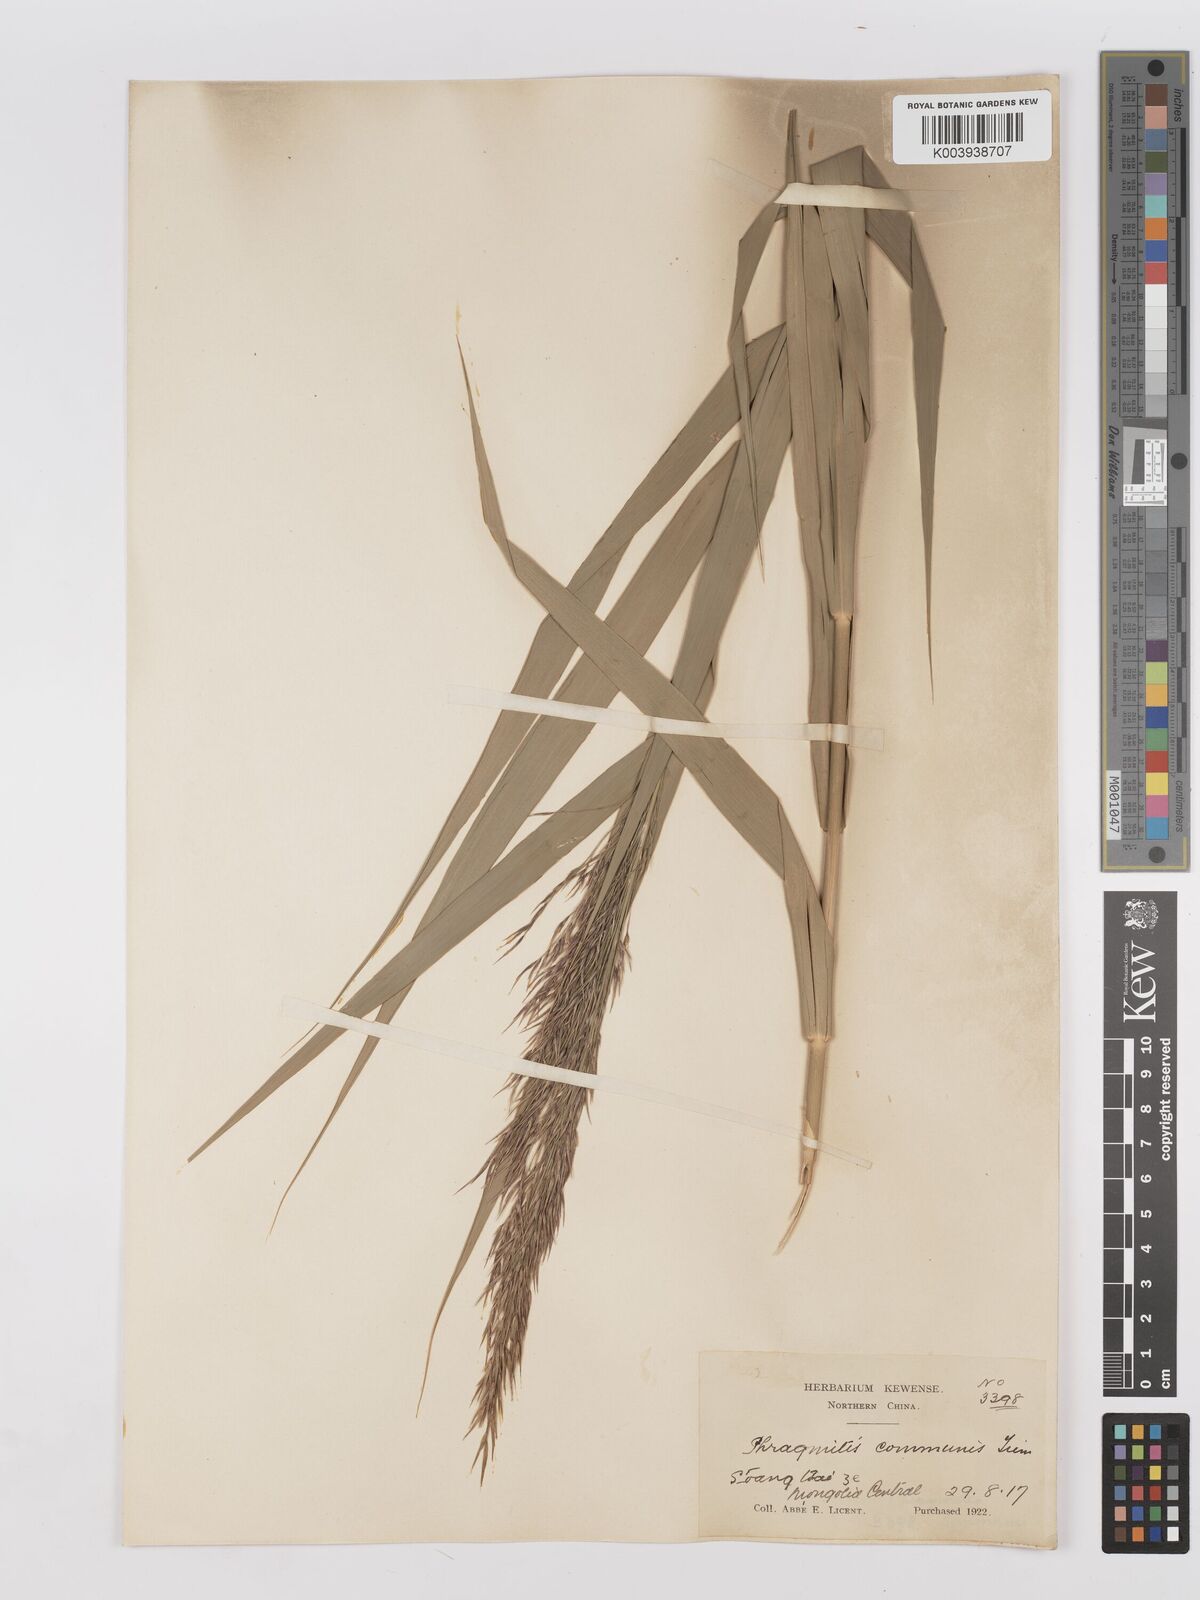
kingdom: Plantae
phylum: Tracheophyta
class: Liliopsida
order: Poales
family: Poaceae
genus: Phragmites
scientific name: Phragmites australis
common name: Common reed
